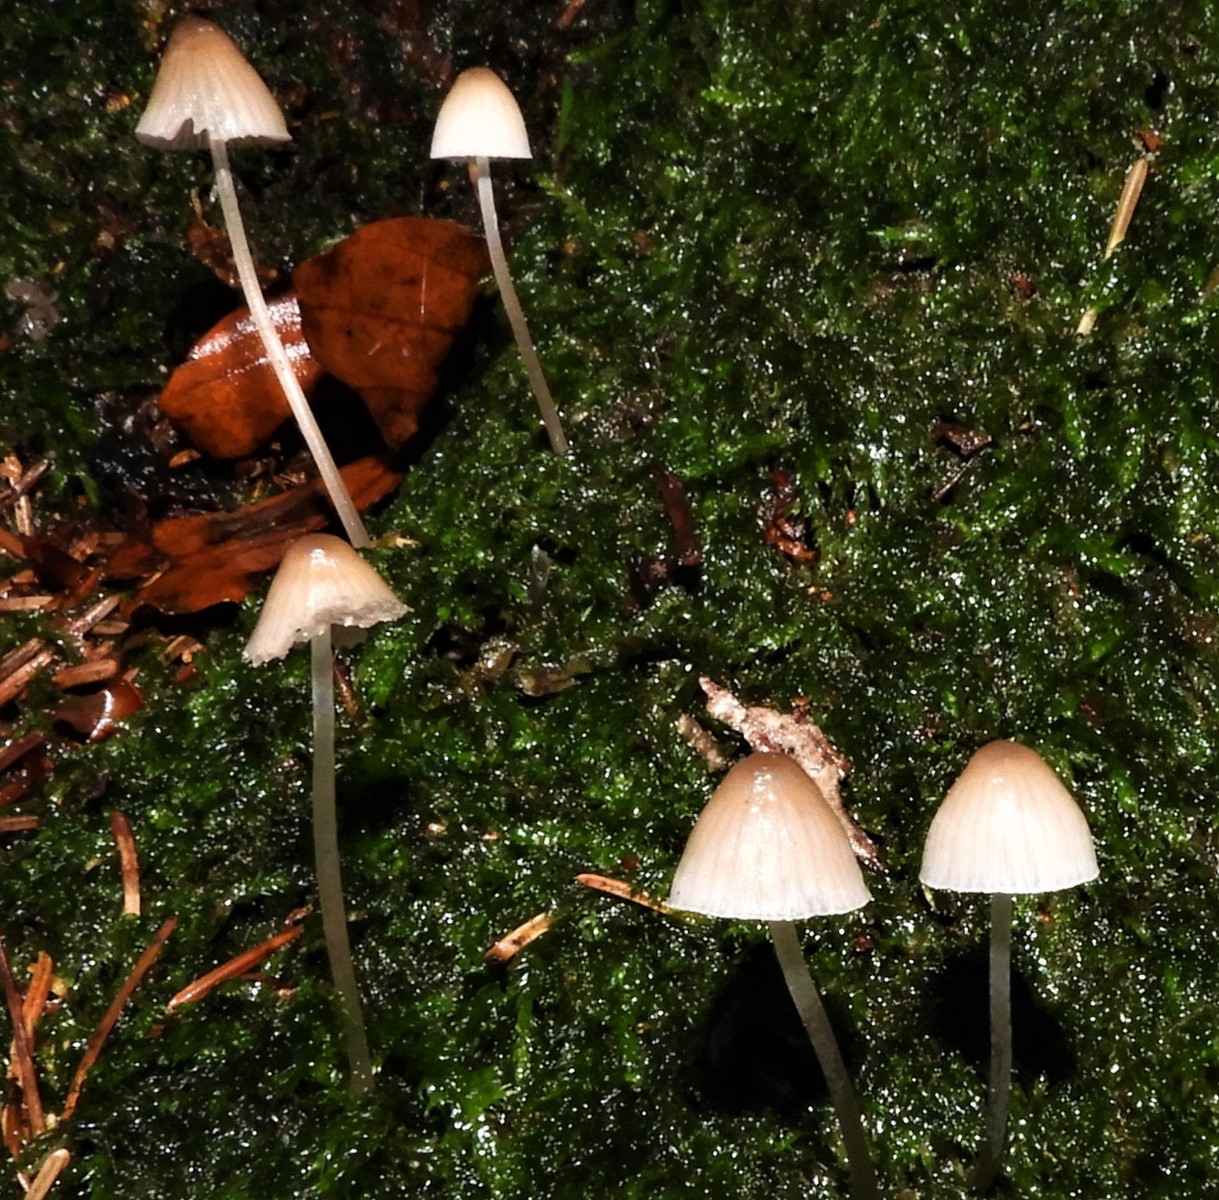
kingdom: Fungi
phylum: Basidiomycota
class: Agaricomycetes
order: Agaricales
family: Mycenaceae
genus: Mycena
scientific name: Mycena metata
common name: rødlig huesvamp
